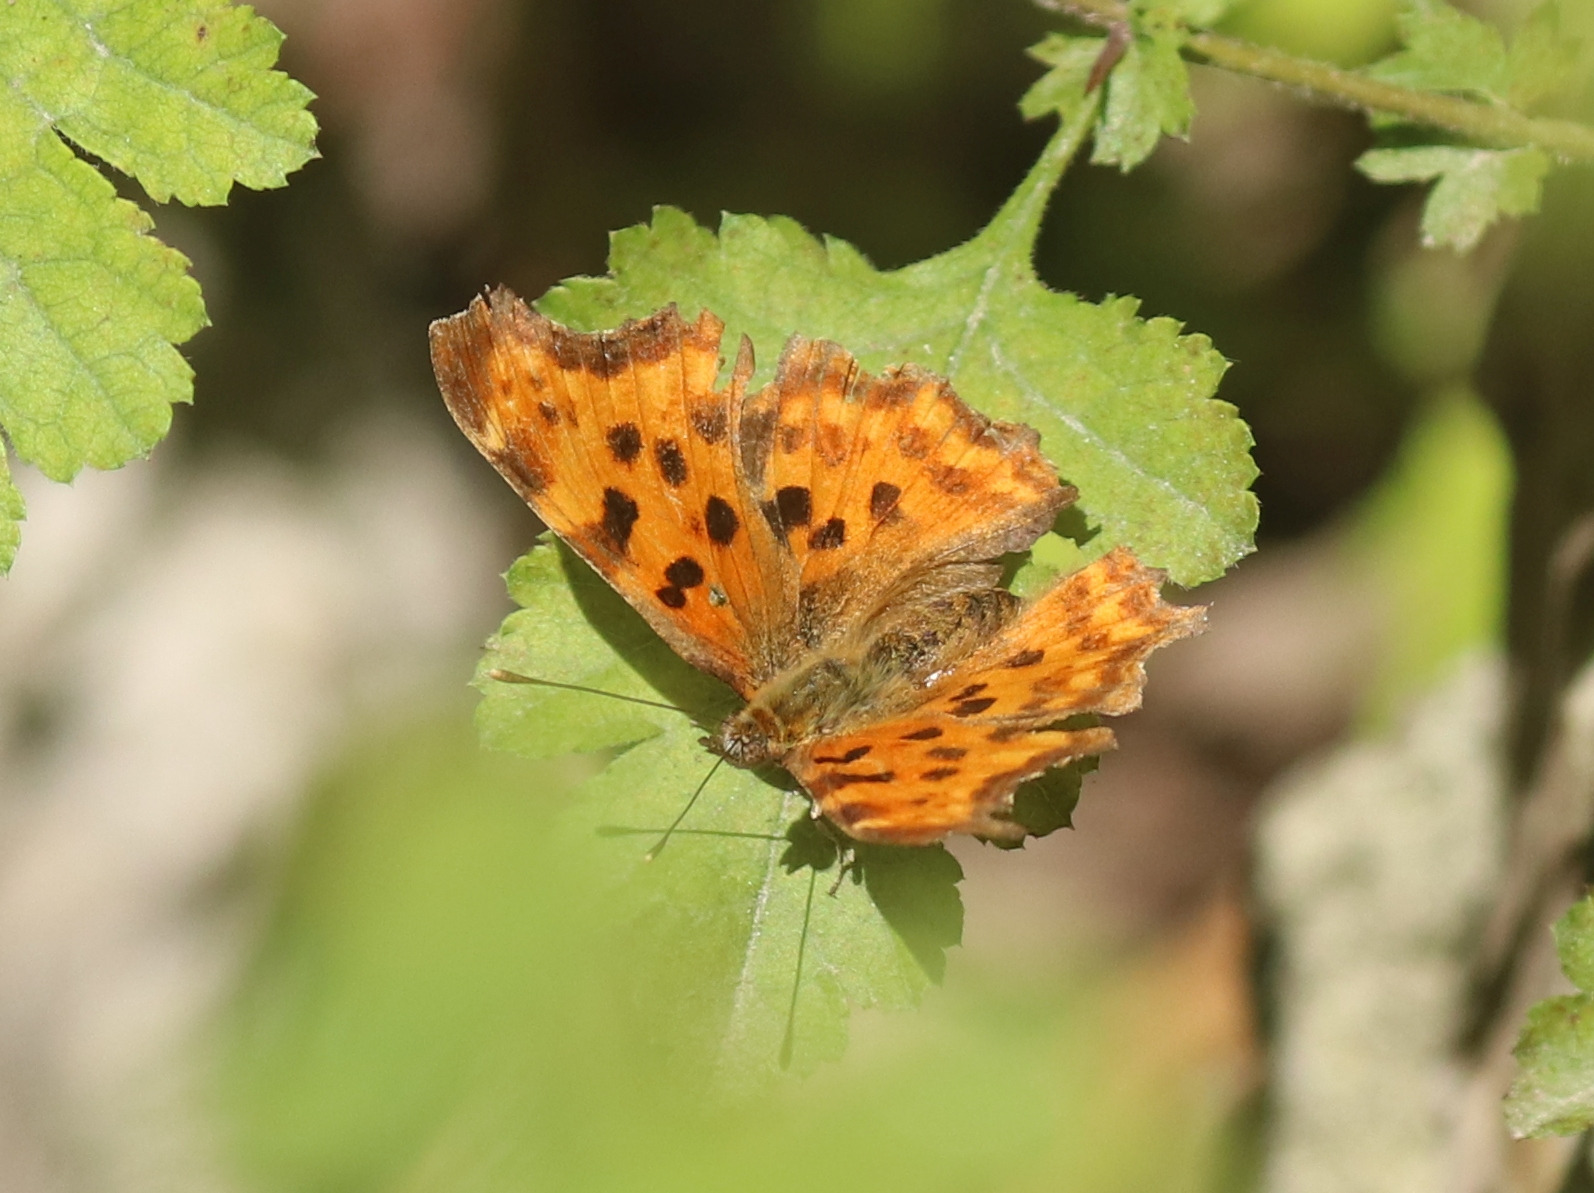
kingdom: Animalia
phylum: Arthropoda
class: Insecta
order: Lepidoptera
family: Nymphalidae
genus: Polygonia
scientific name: Polygonia c-album
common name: Det hvide C
